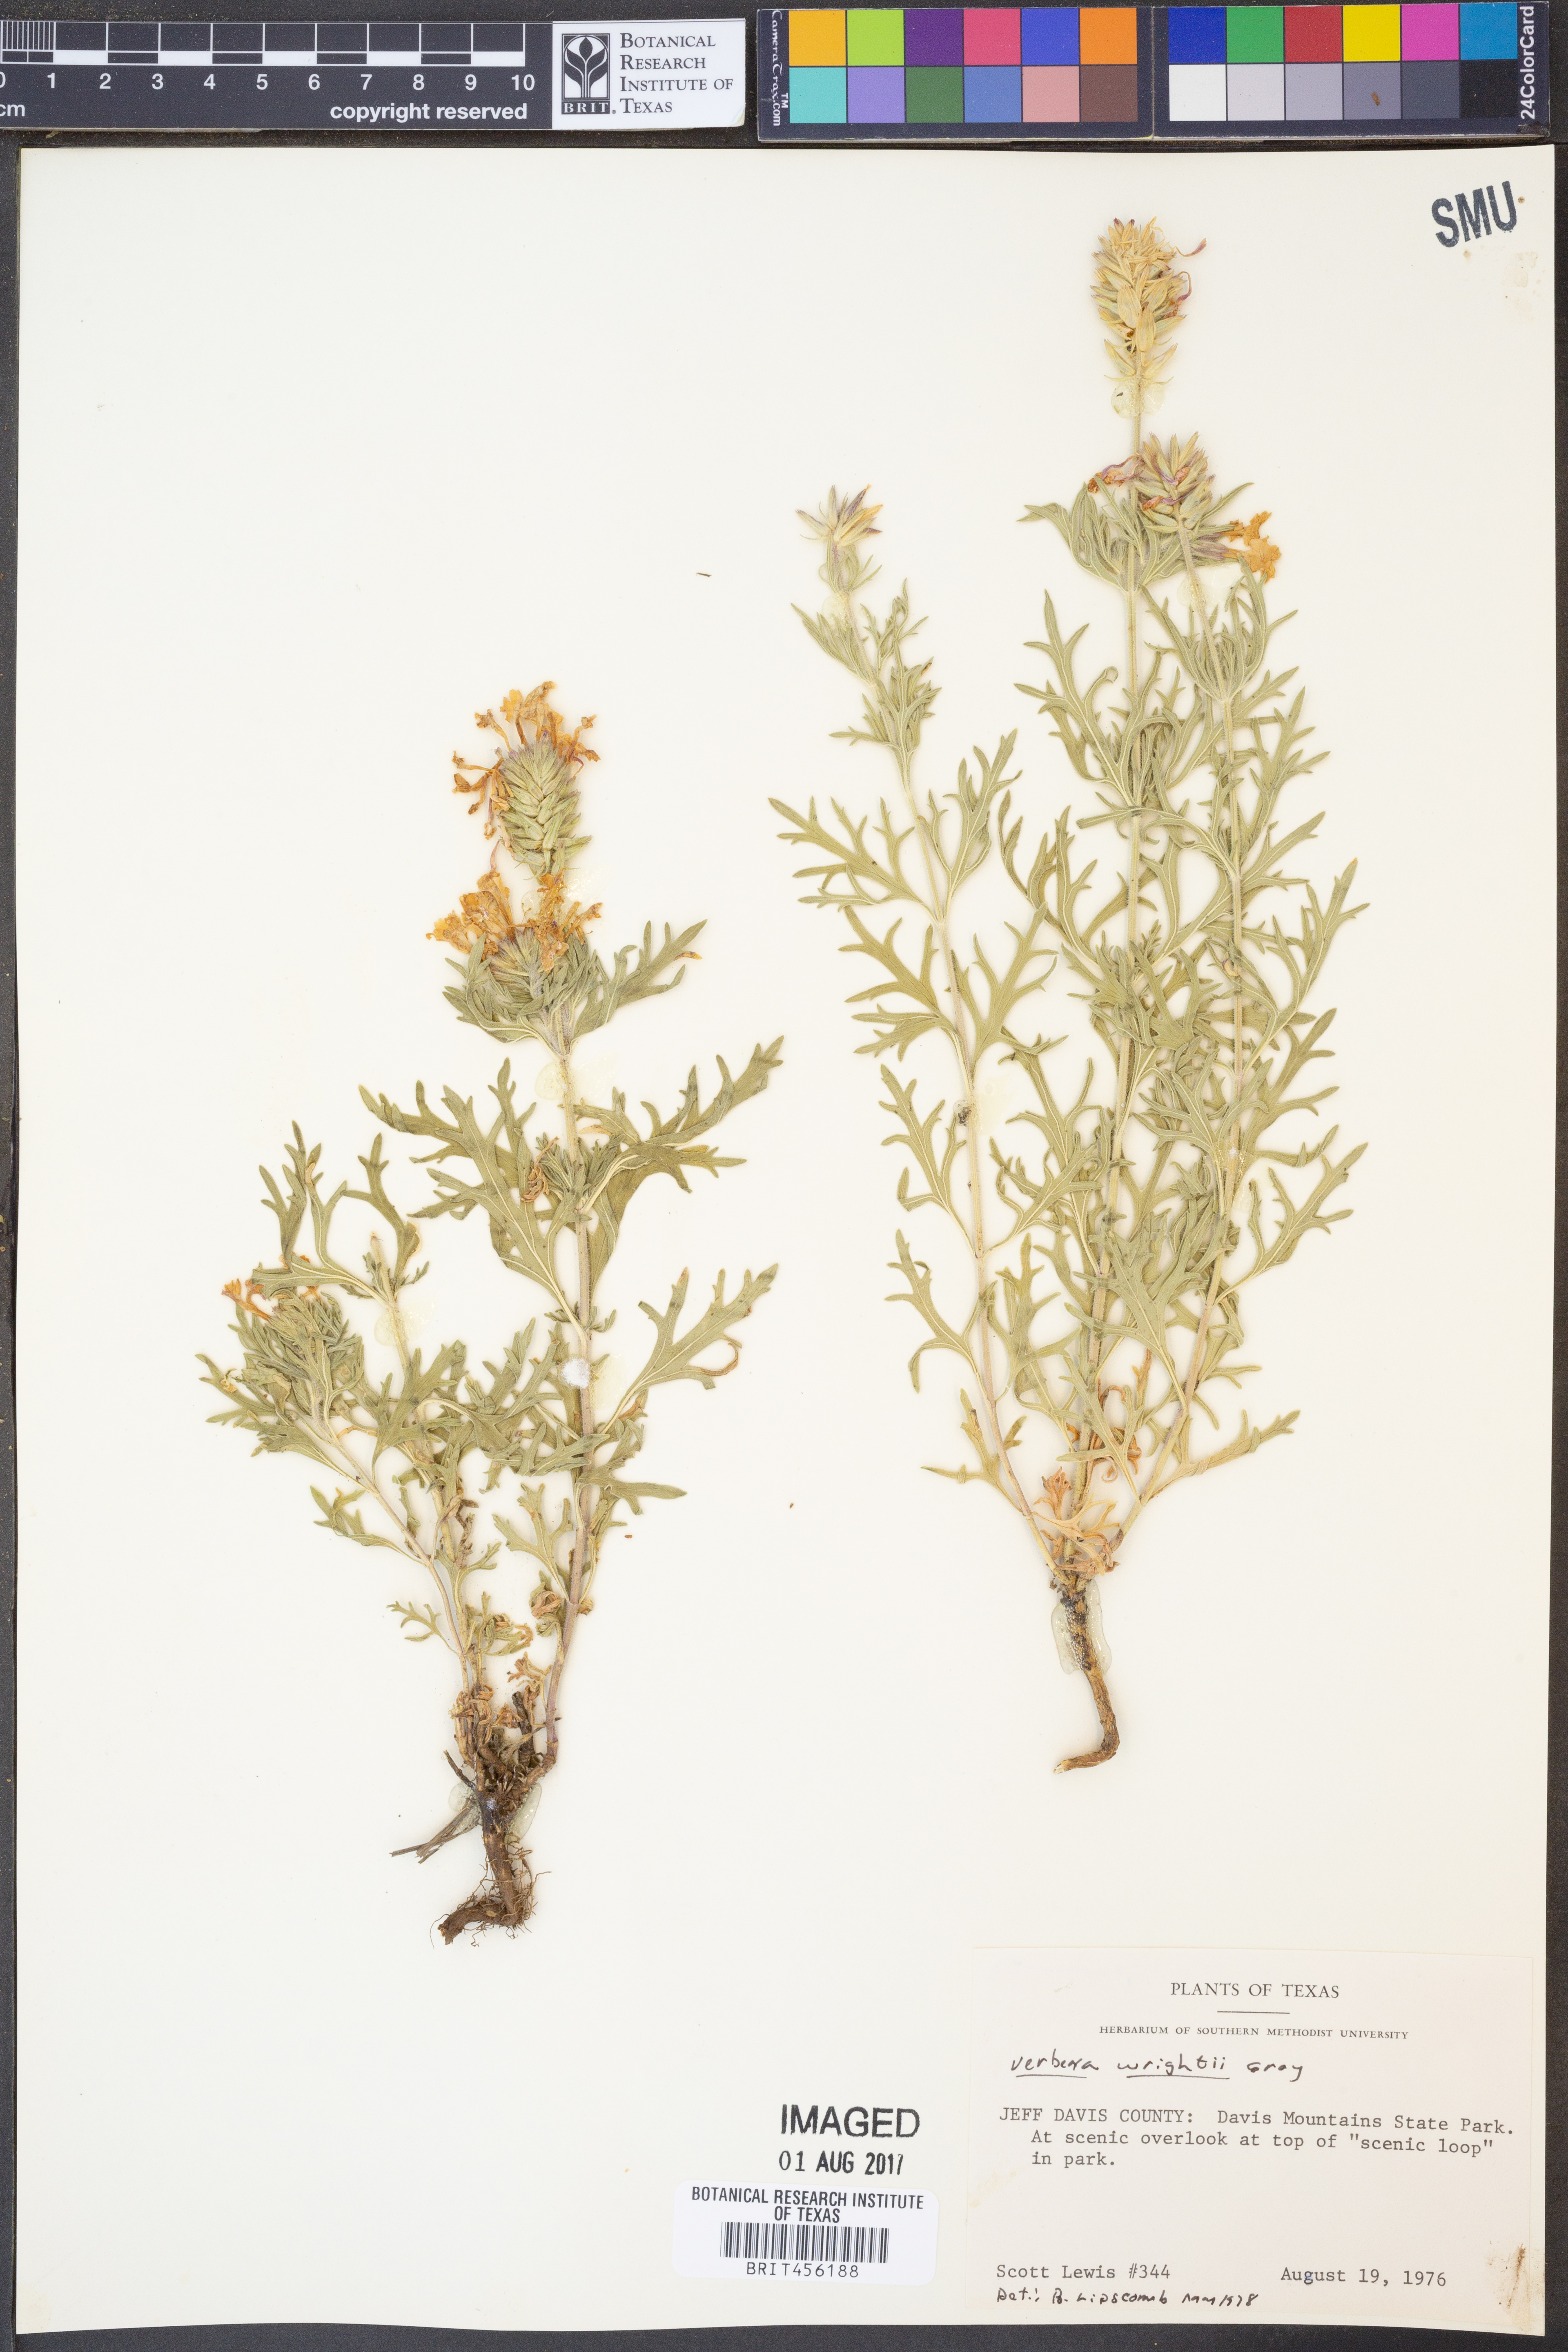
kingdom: Plantae
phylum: Tracheophyta
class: Magnoliopsida
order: Lamiales
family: Verbenaceae
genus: Verbena
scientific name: Verbena bipinnatifida
